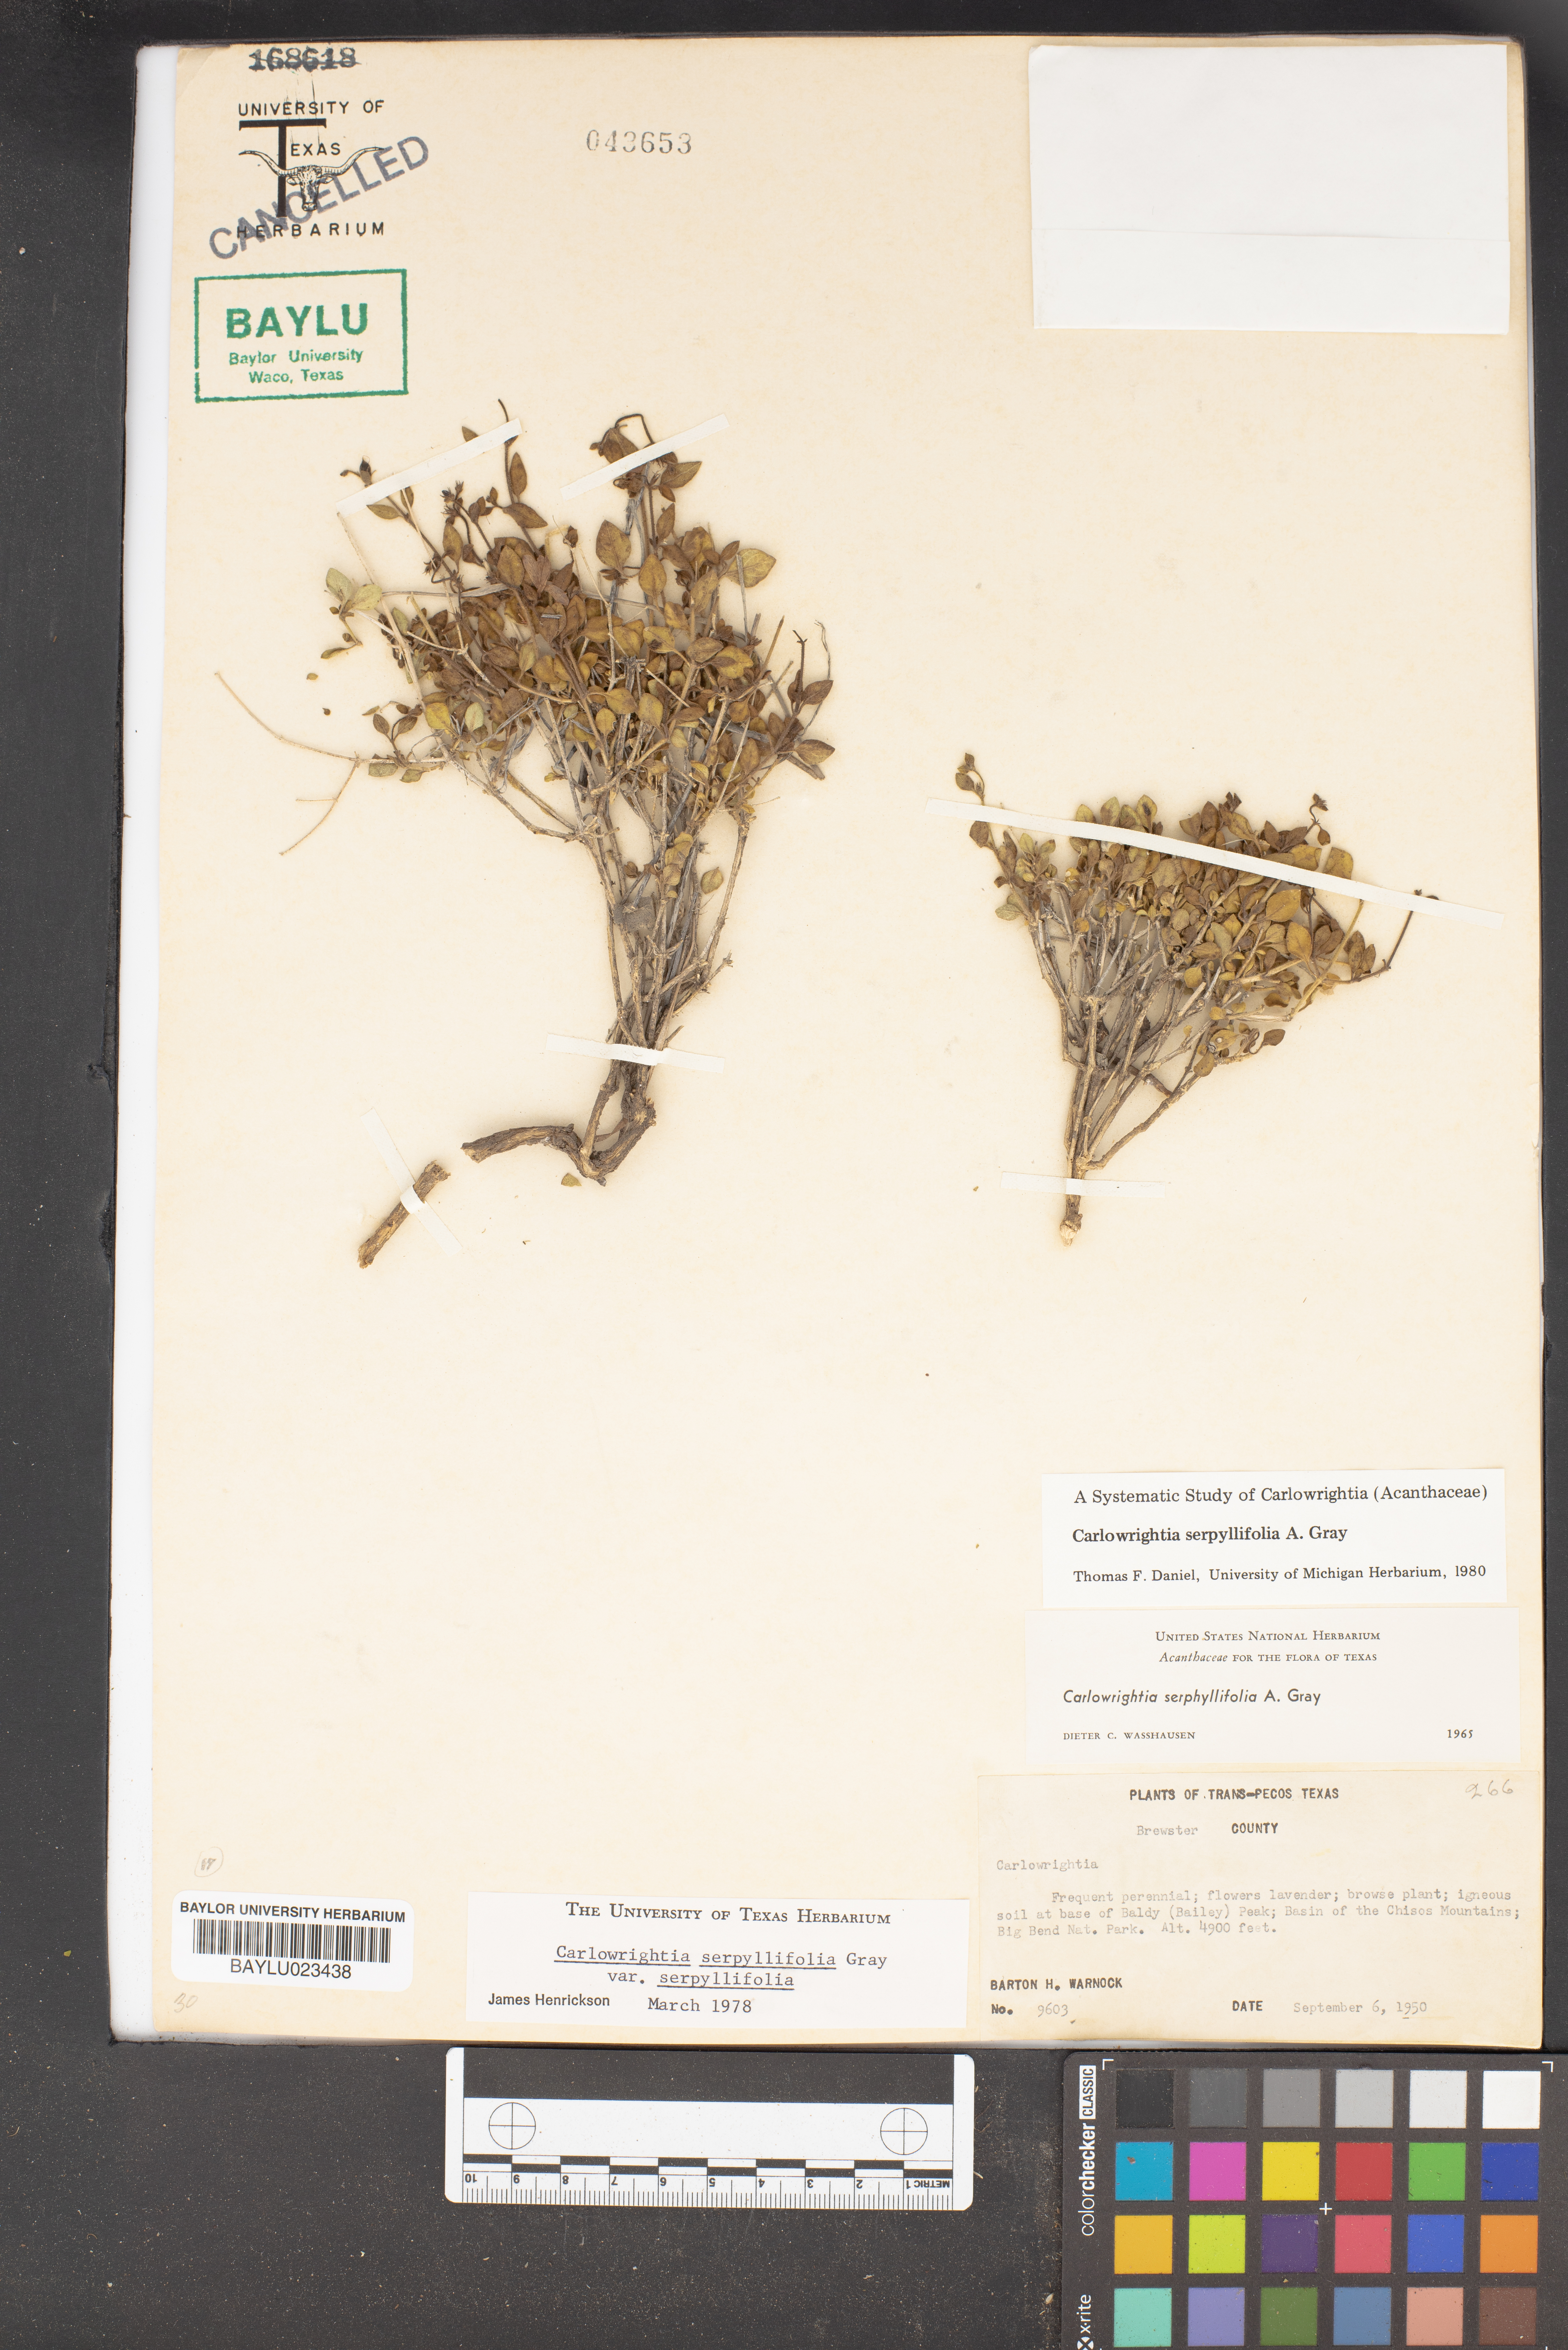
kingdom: Plantae
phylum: Tracheophyta
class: Magnoliopsida
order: Lamiales
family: Acanthaceae
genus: Carlowrightia
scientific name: Carlowrightia serpyllifolia
